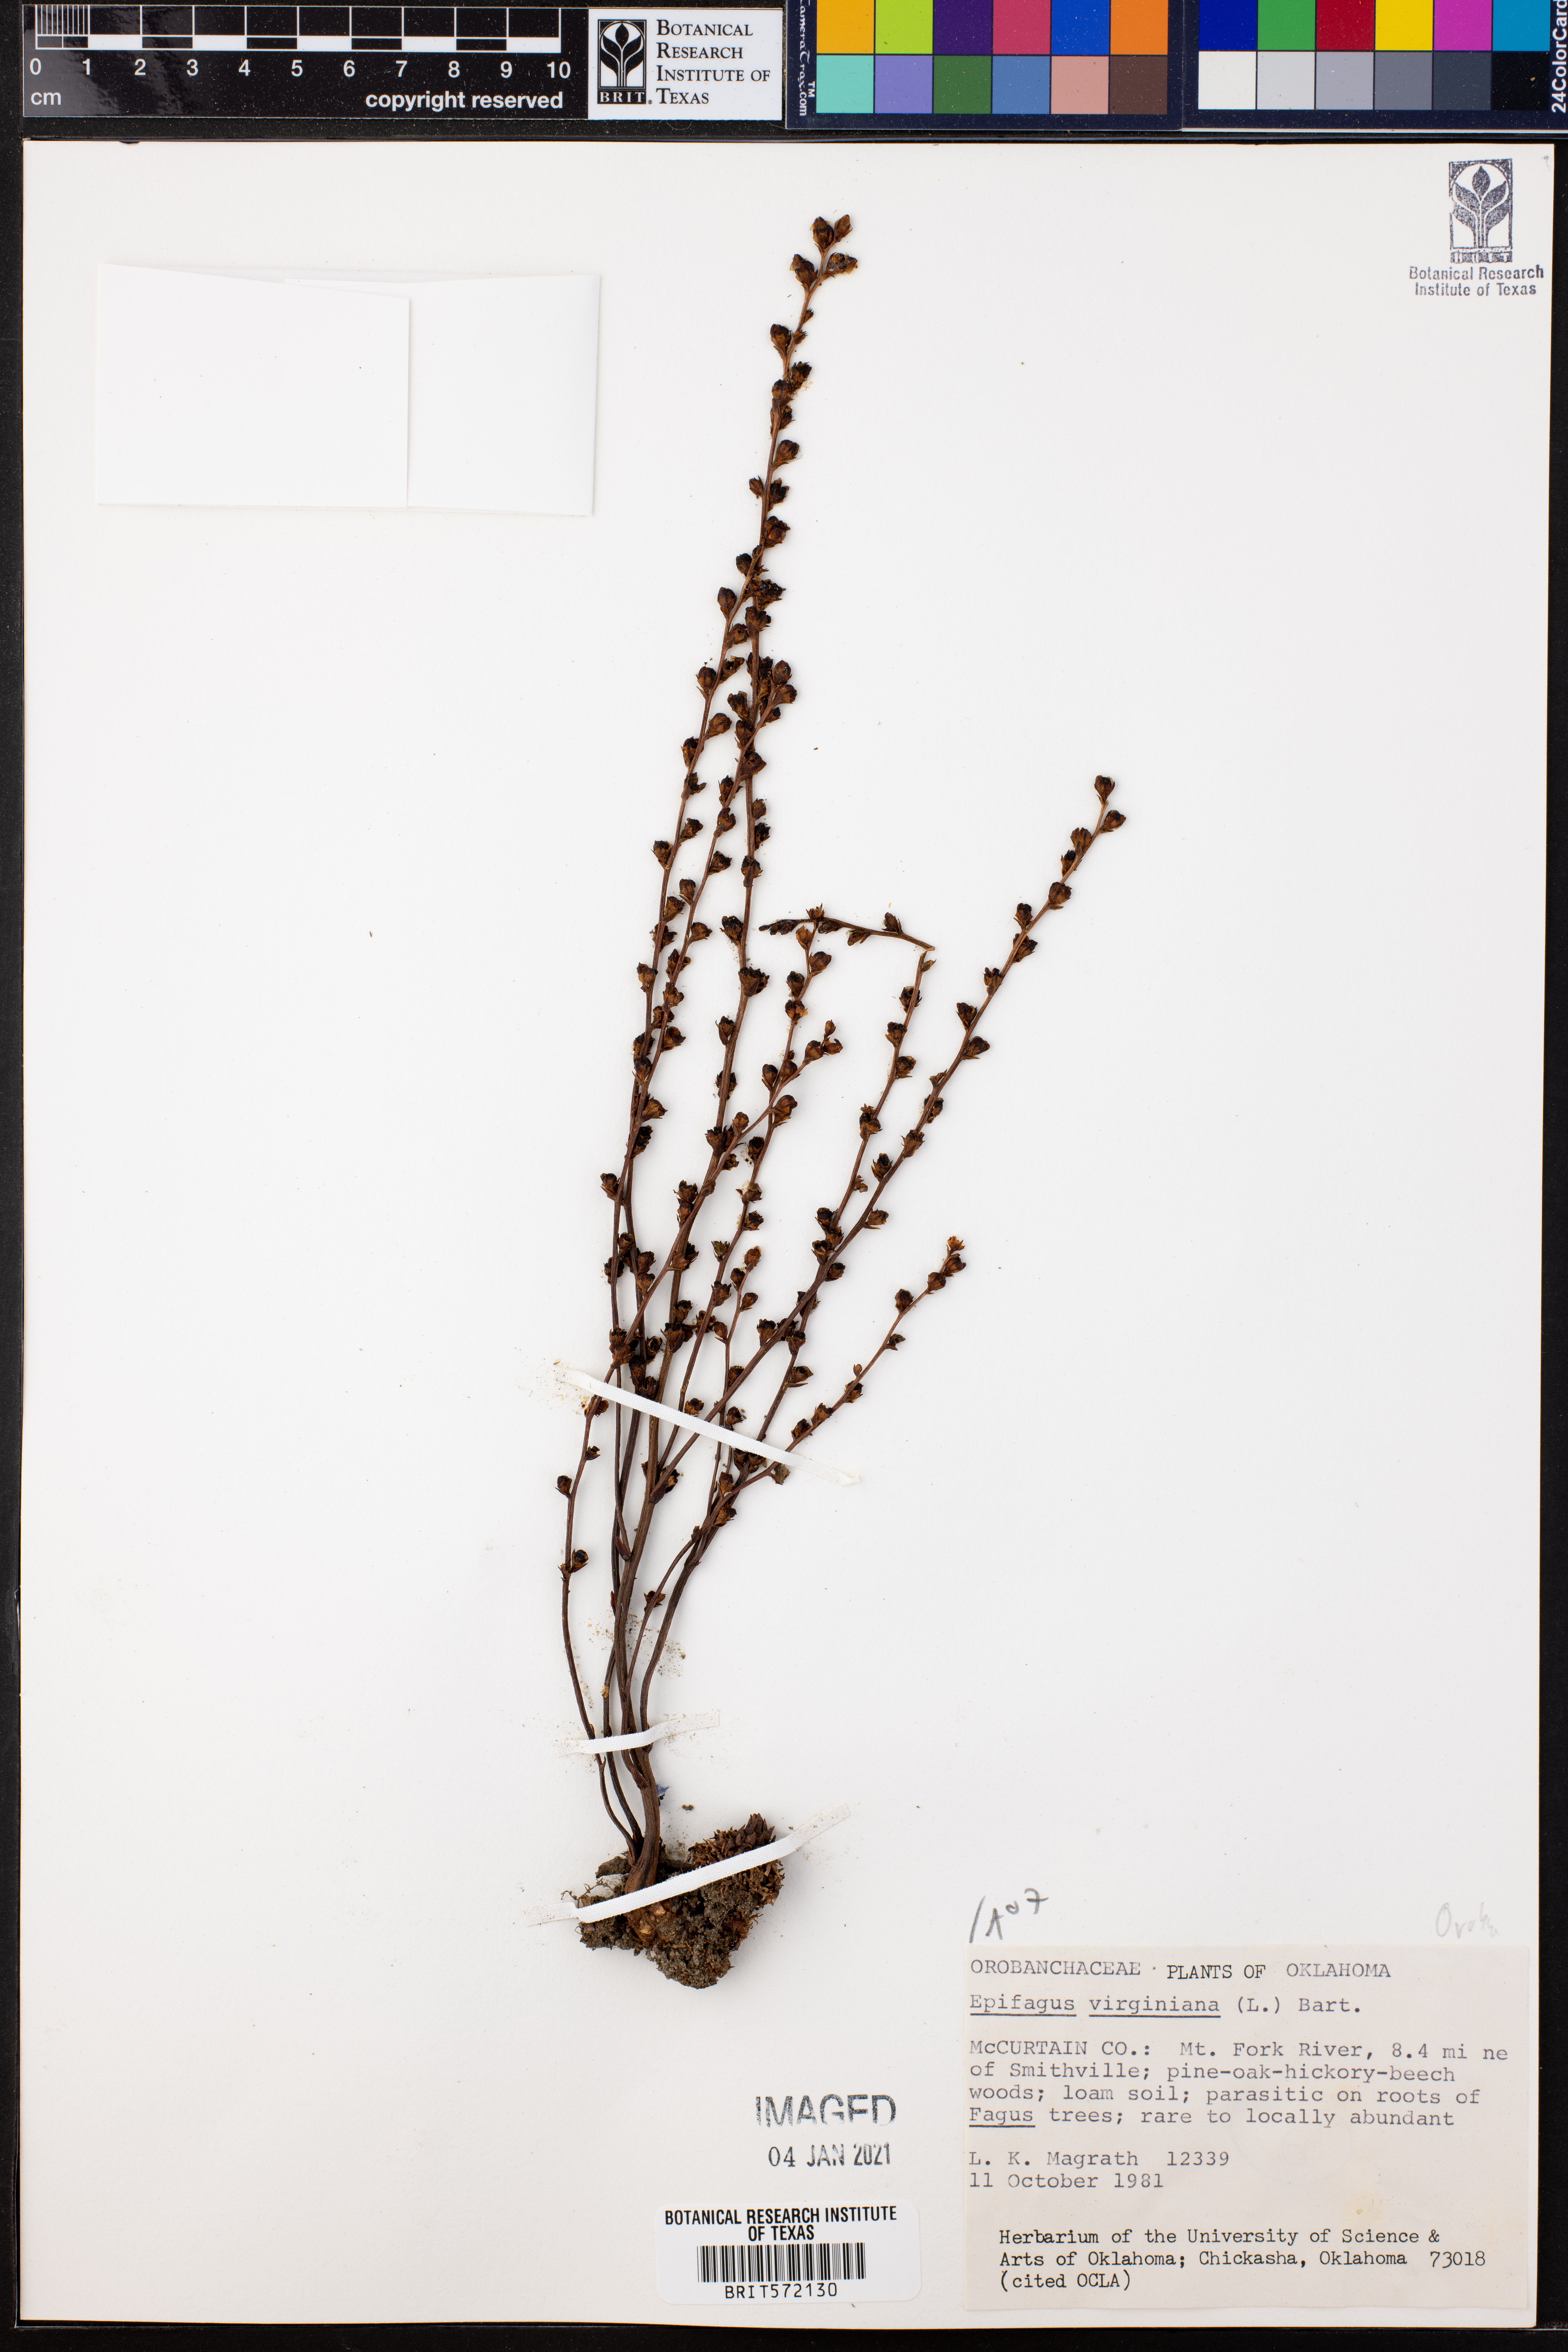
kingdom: Plantae
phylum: Tracheophyta
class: Magnoliopsida
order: Lamiales
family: Orobanchaceae
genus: Epifagus
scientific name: Epifagus virginiana
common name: Beechdrops
